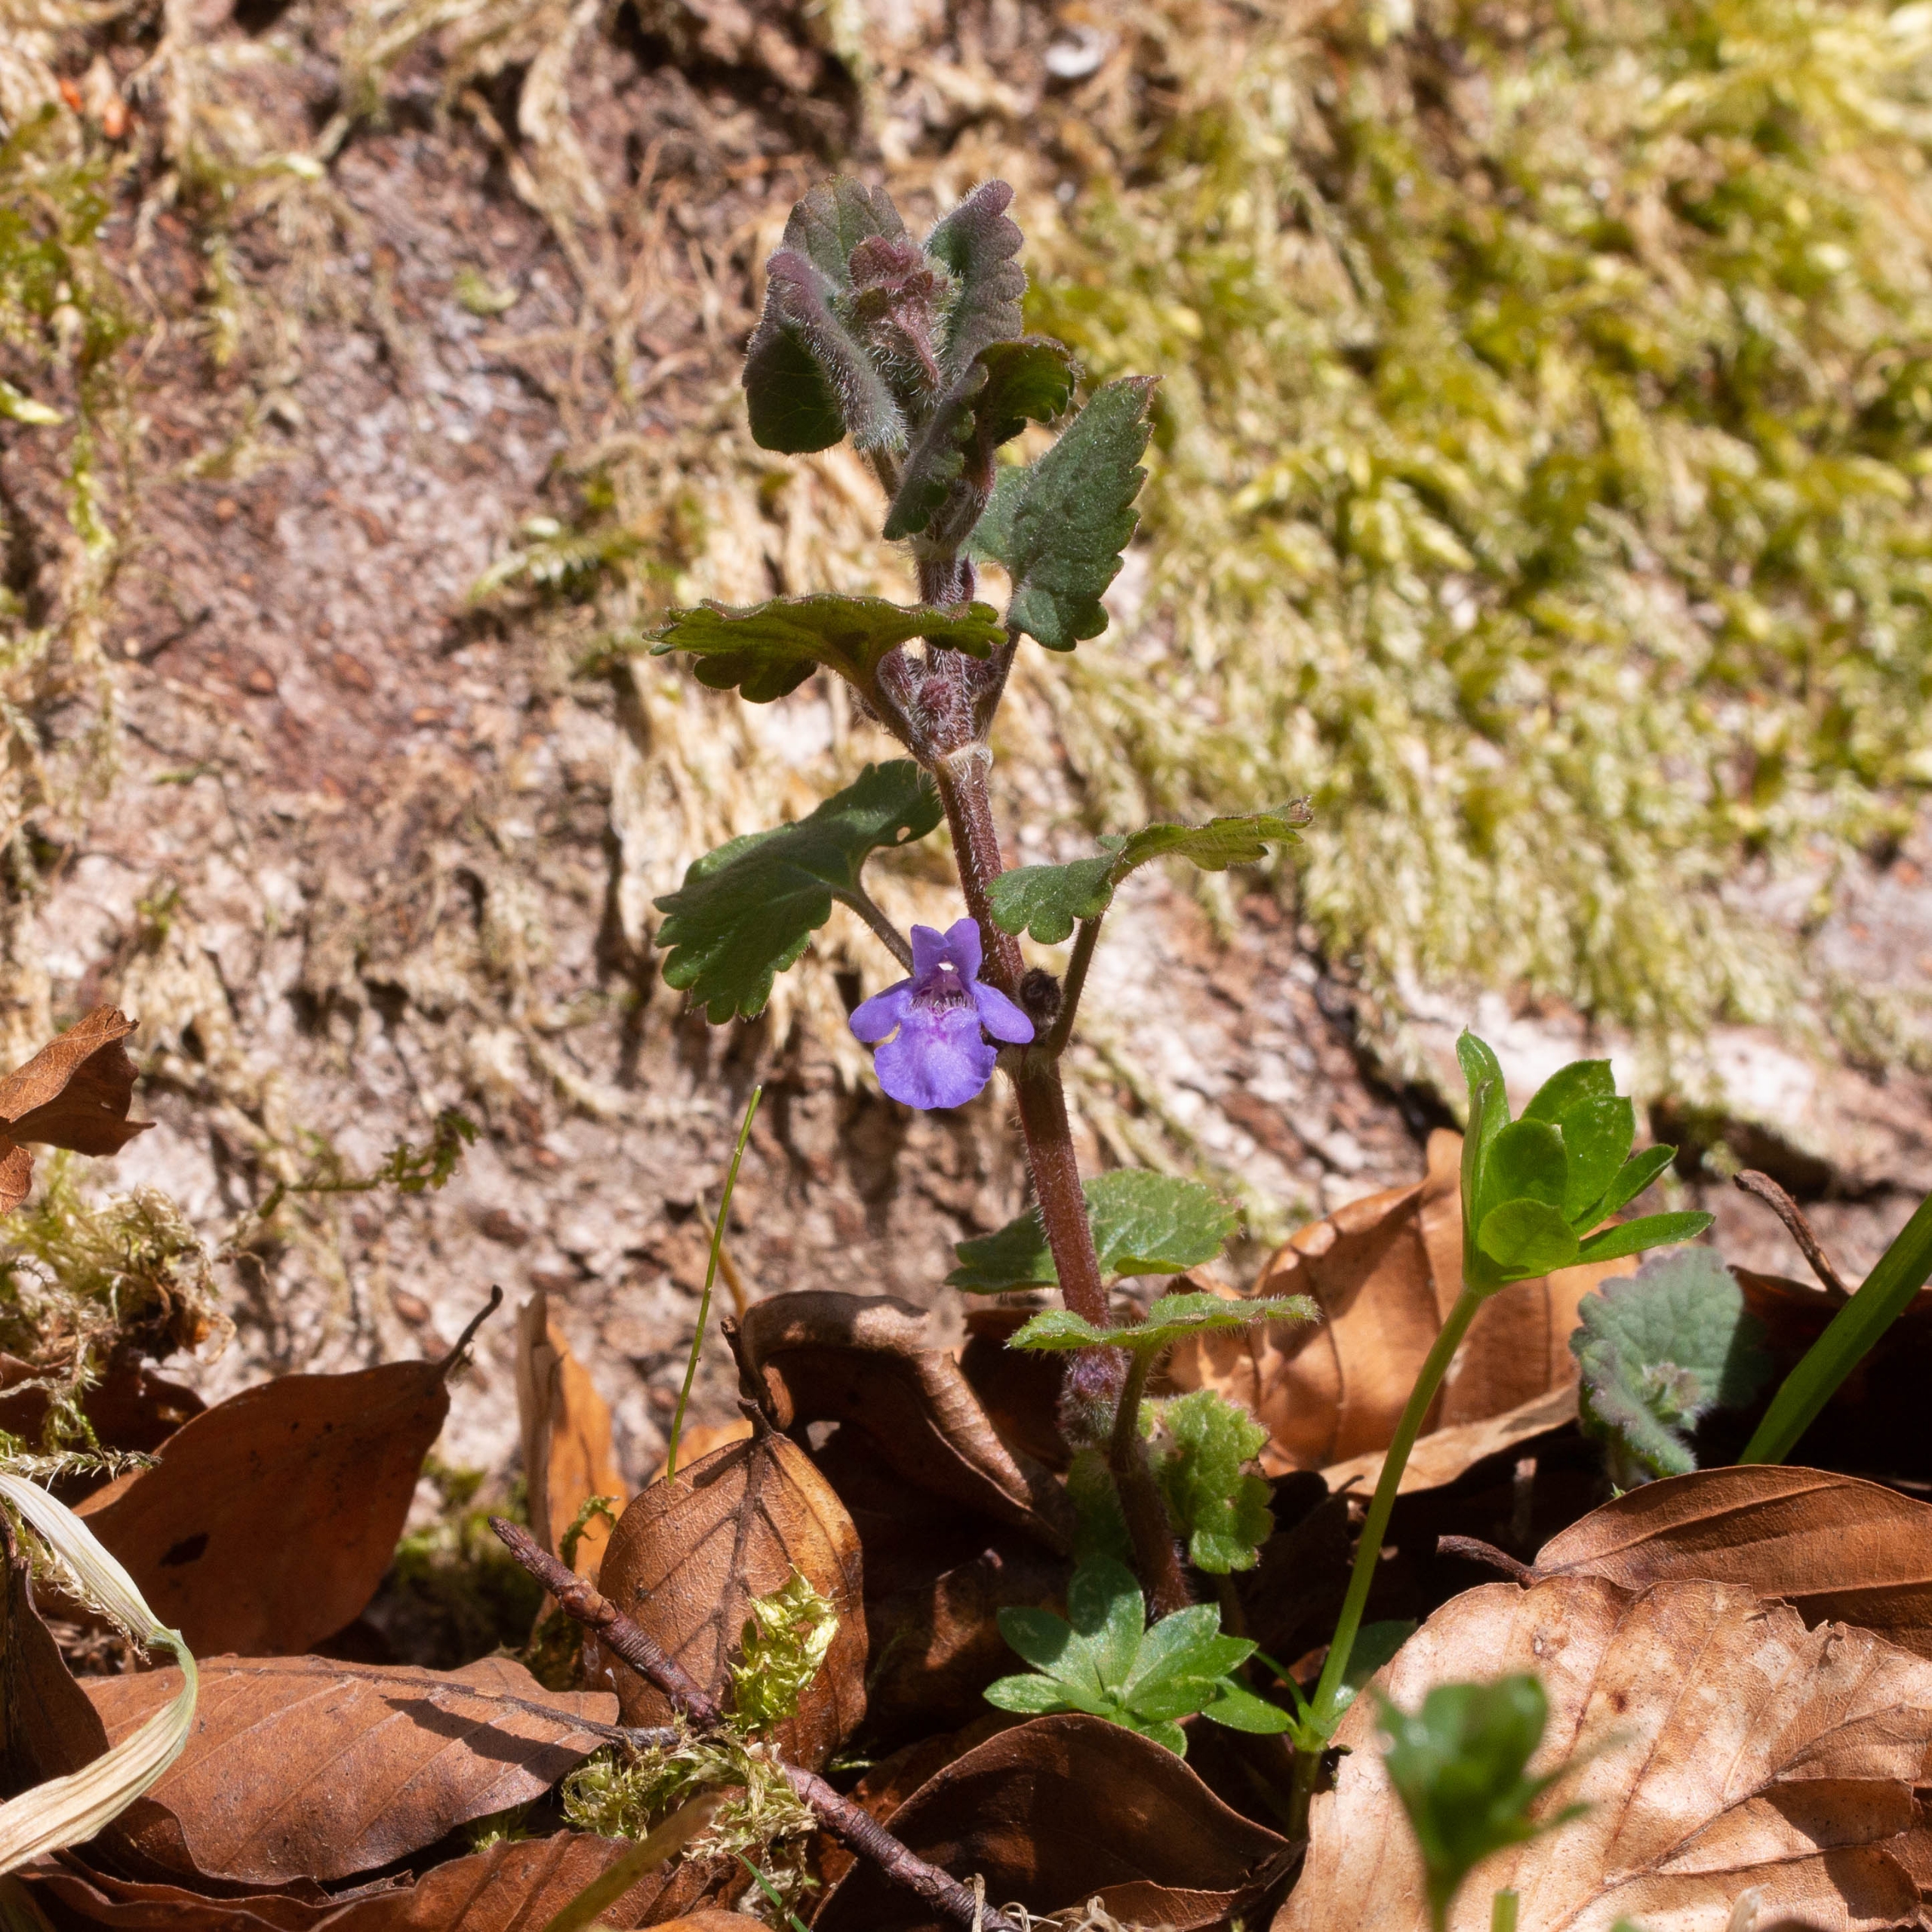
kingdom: Plantae
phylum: Tracheophyta
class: Magnoliopsida
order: Lamiales
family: Lamiaceae
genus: Glechoma
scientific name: Glechoma hederacea
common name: Korsknap
